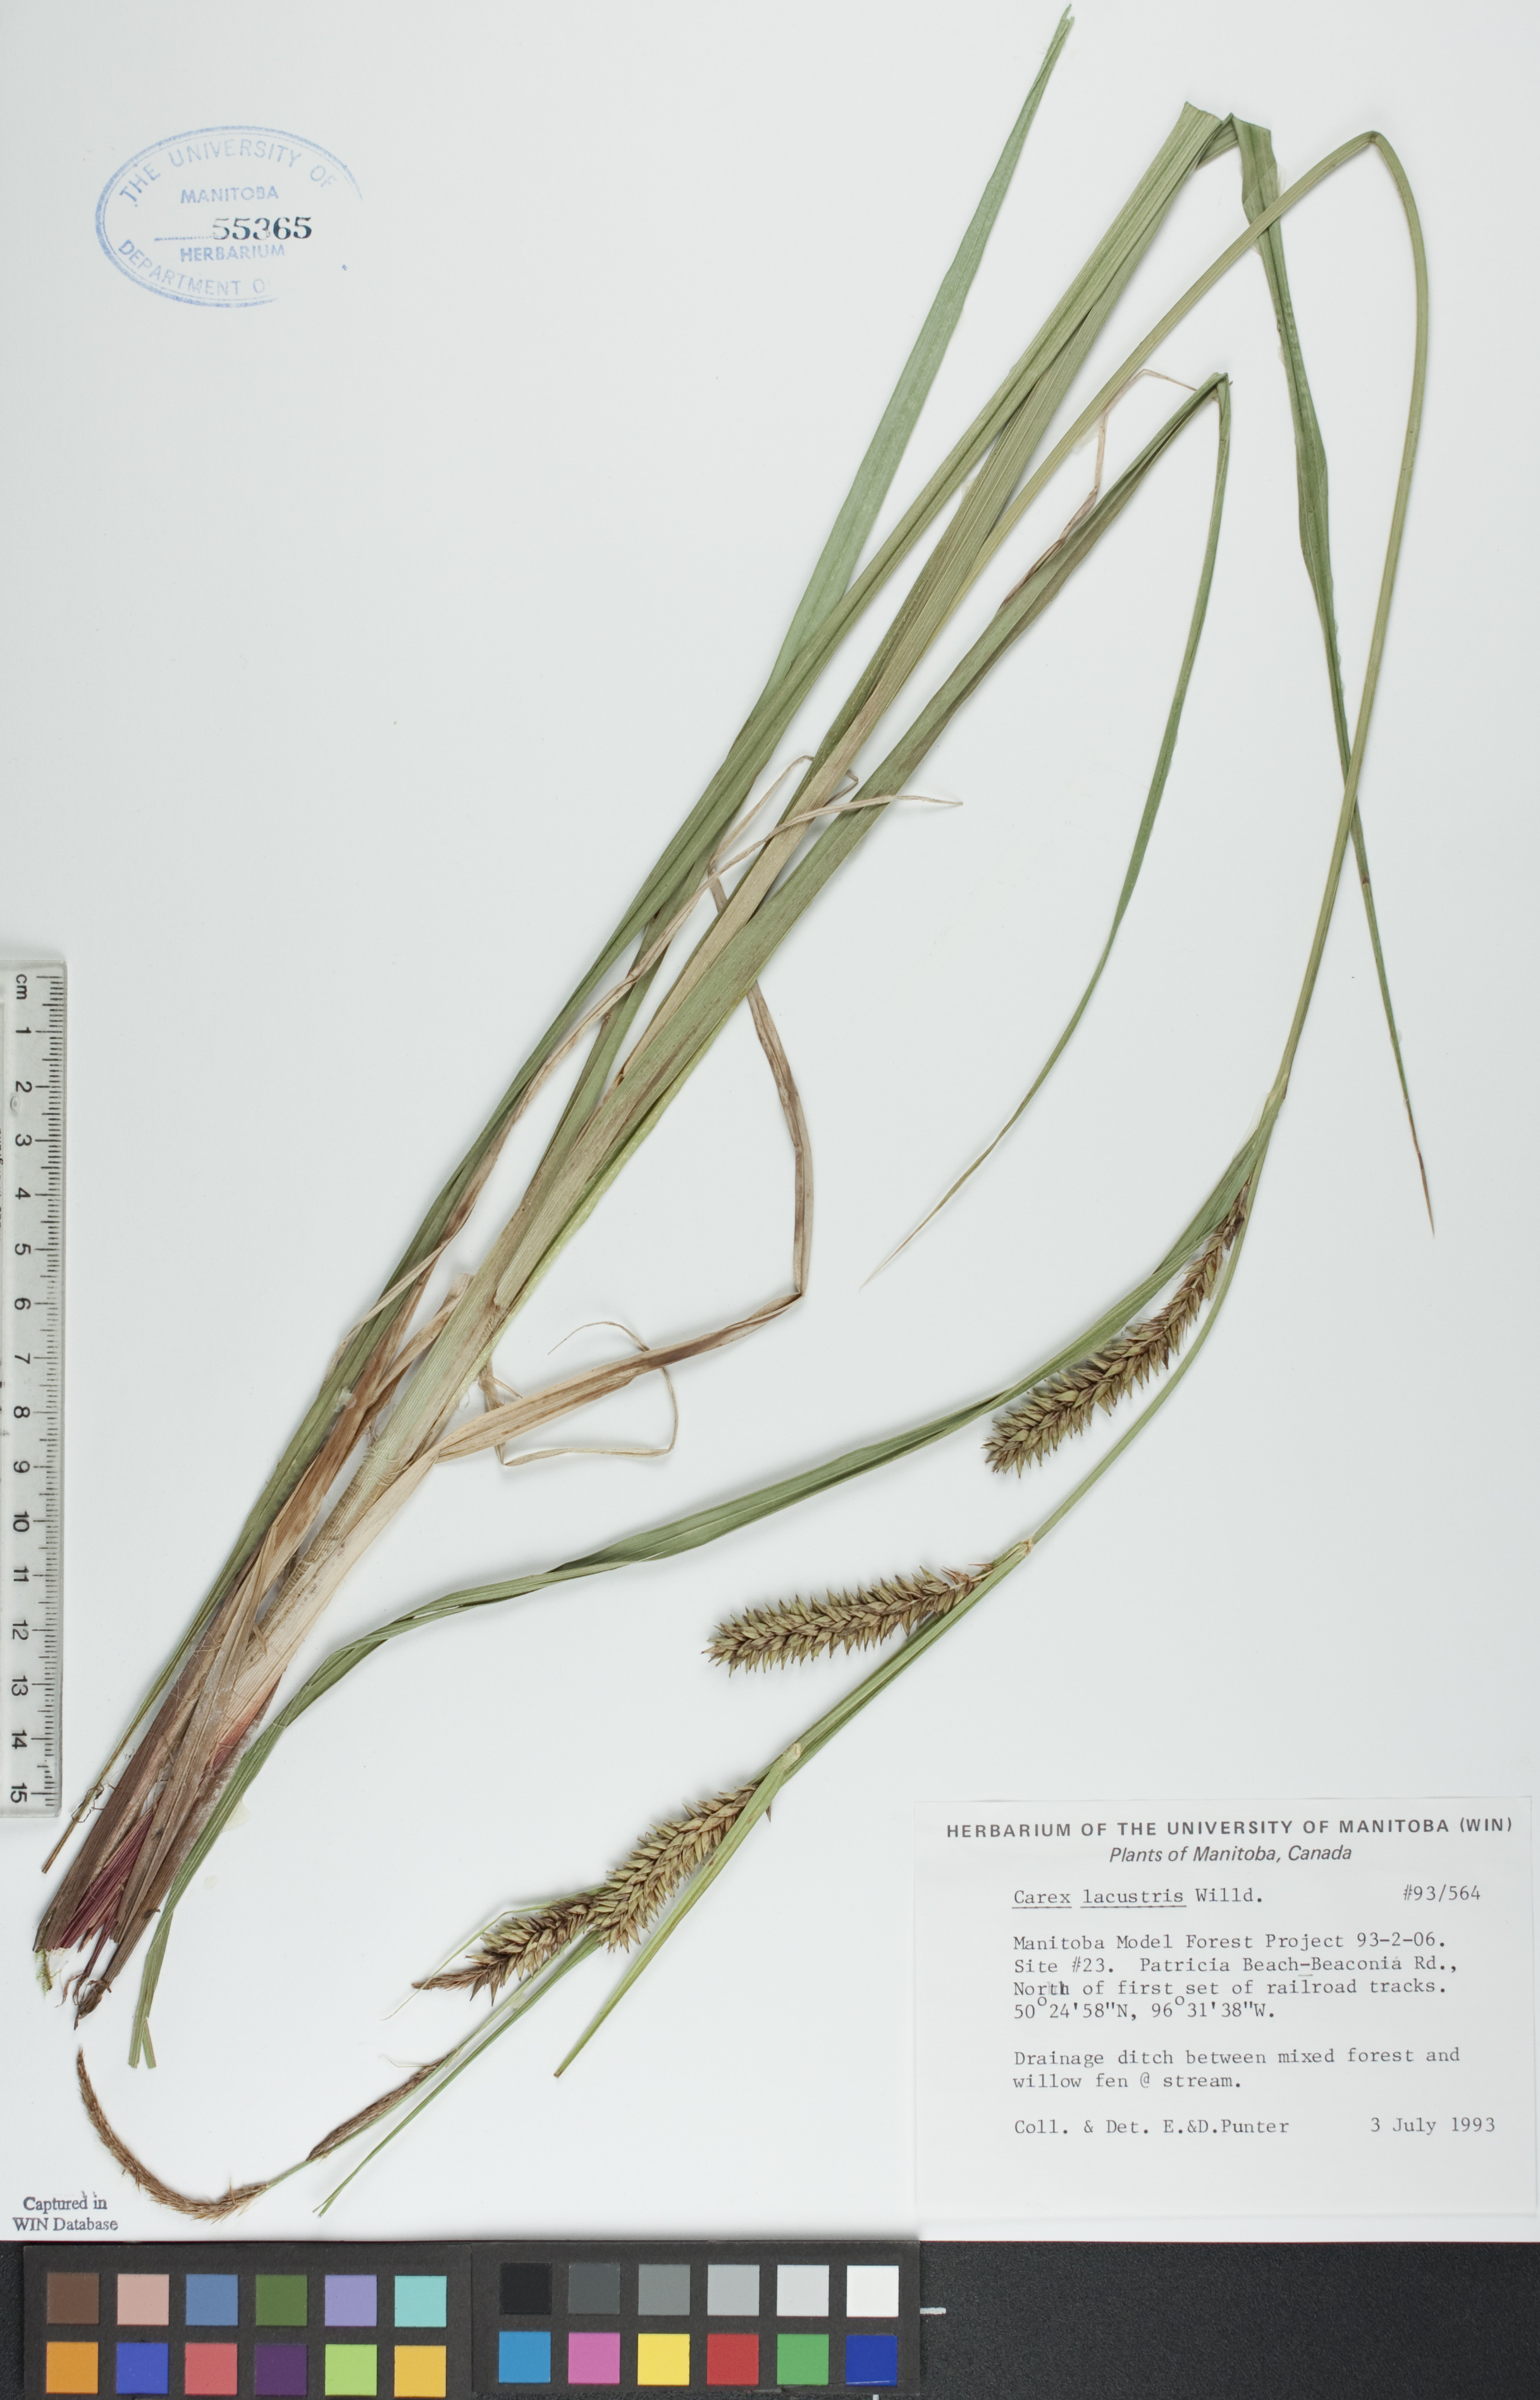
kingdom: Plantae
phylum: Tracheophyta
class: Liliopsida
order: Poales
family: Cyperaceae
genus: Carex
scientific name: Carex lacustris
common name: Common lake sedge
